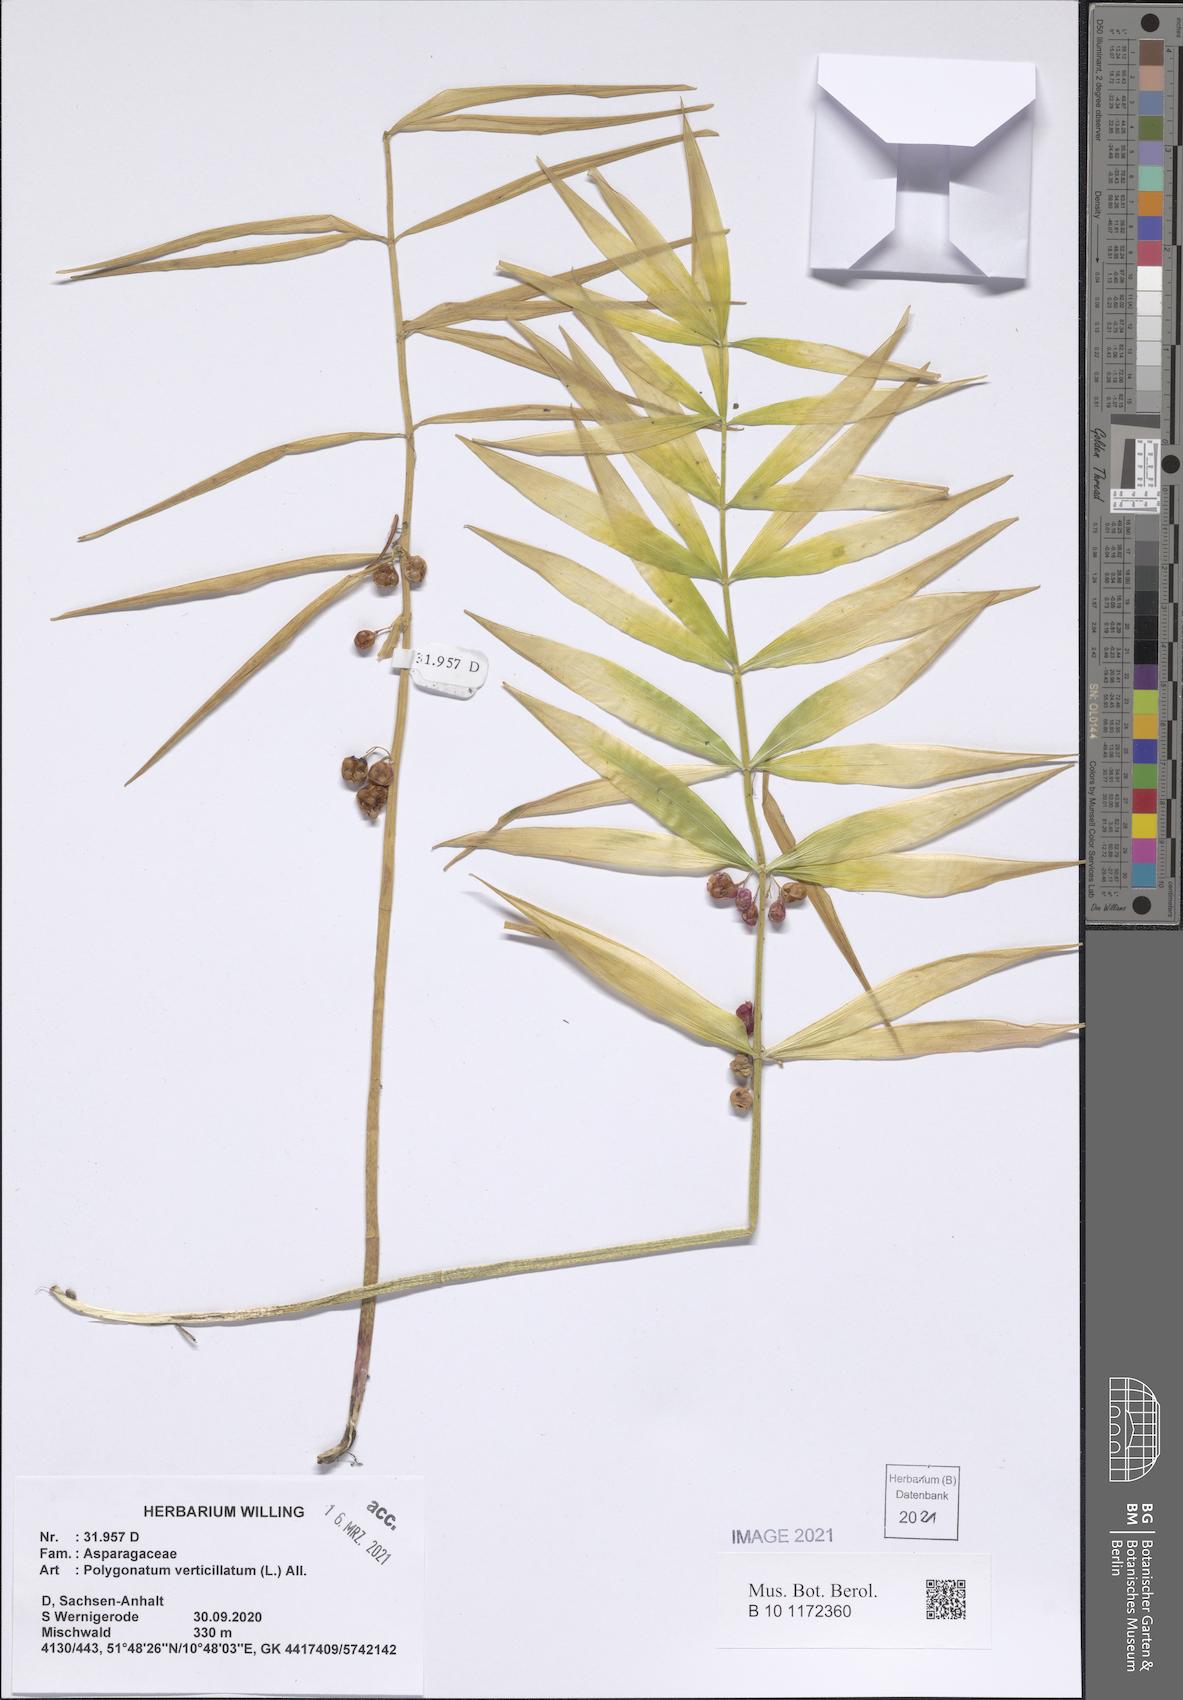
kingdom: Plantae
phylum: Tracheophyta
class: Liliopsida
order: Asparagales
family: Asparagaceae
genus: Polygonatum
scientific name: Polygonatum verticillatum
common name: Whorled solomon's-seal
